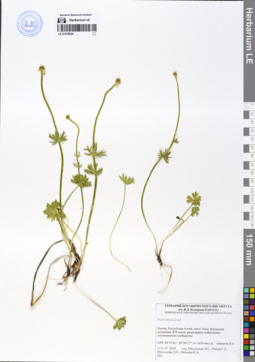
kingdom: Plantae
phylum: Tracheophyta
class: Magnoliopsida
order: Ranunculales
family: Ranunculaceae
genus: Ranunculus
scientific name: Ranunculus lasiocarpus
